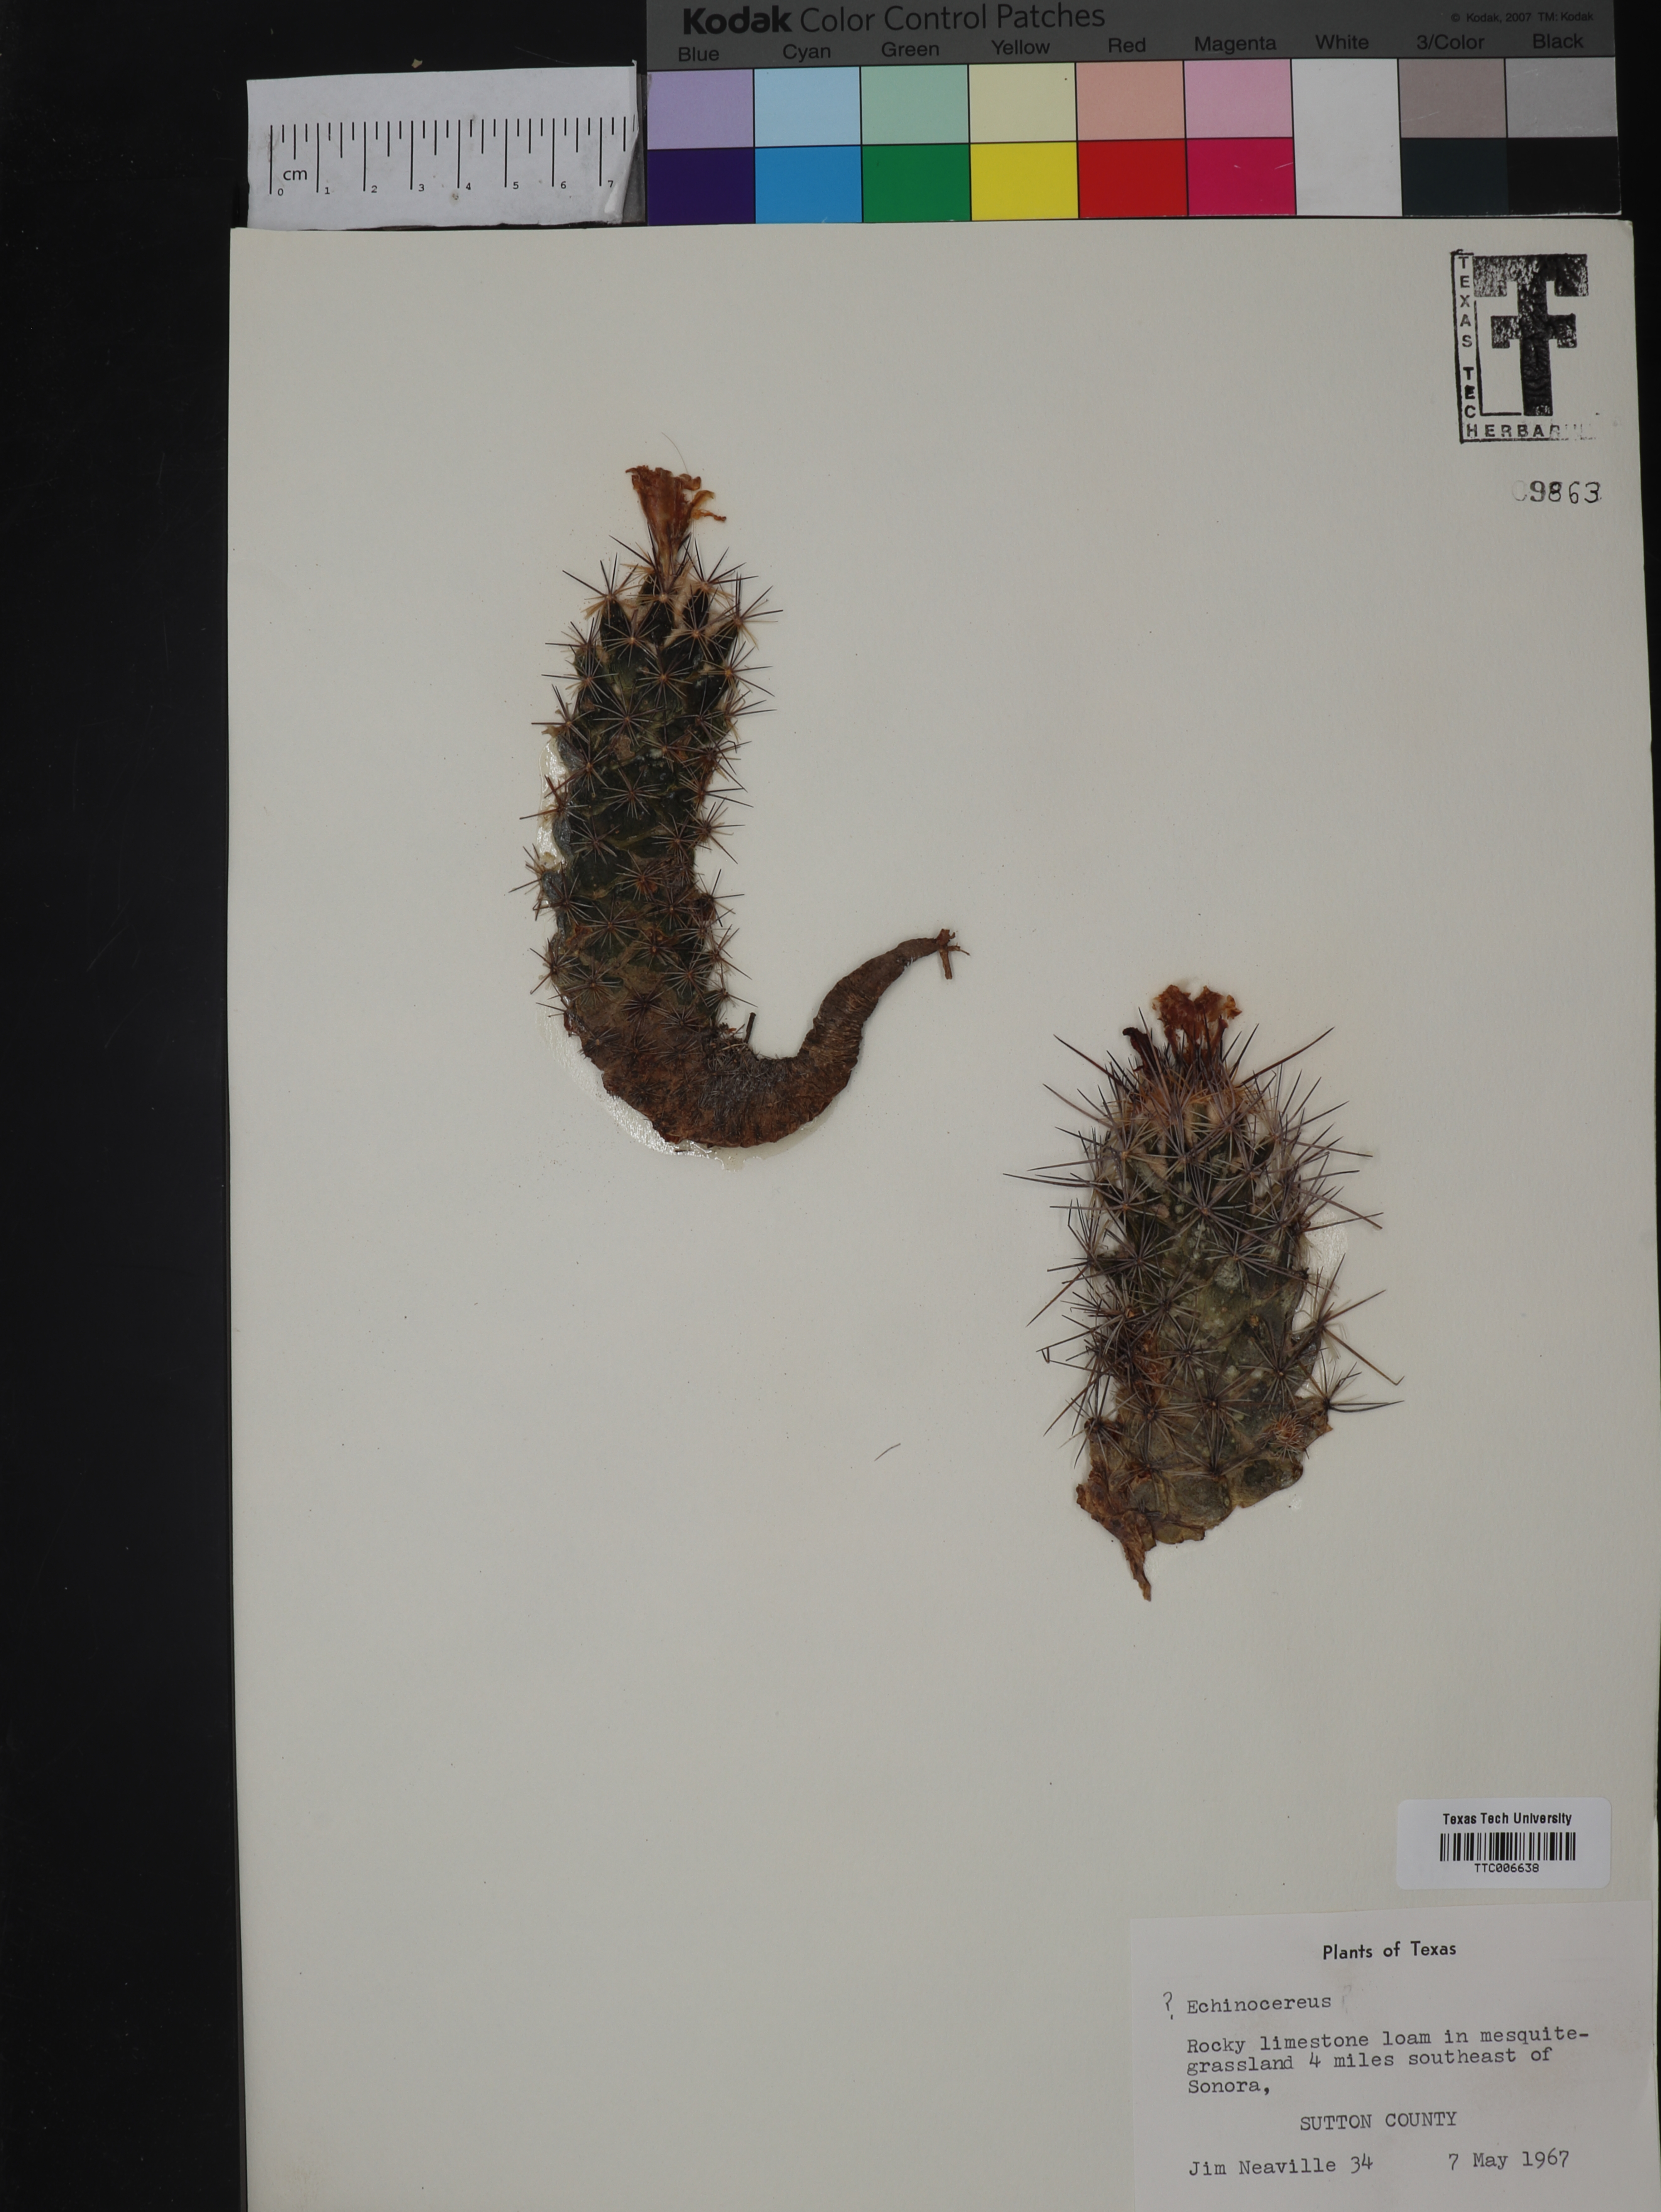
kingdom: Plantae
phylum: Tracheophyta
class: Magnoliopsida
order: Caryophyllales
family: Cactaceae
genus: Echinocereus
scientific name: Echinocereus
